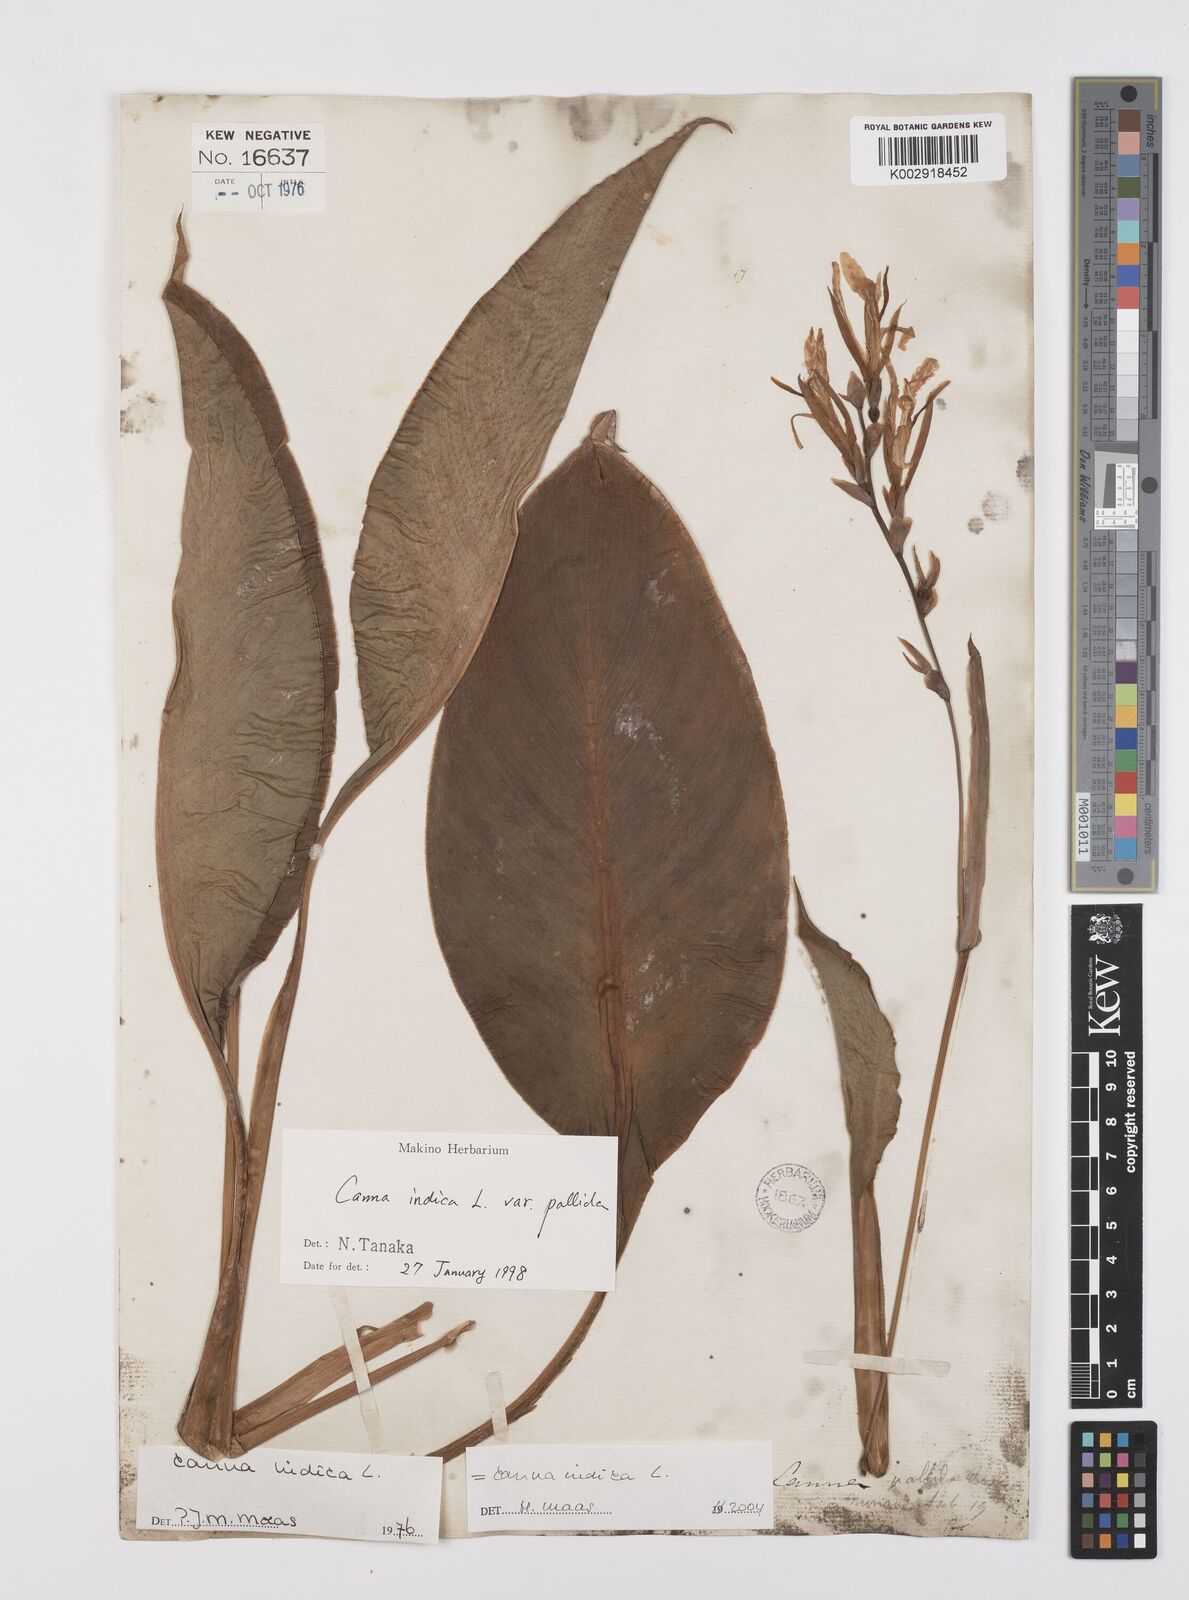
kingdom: Plantae
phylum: Tracheophyta
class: Liliopsida
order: Zingiberales
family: Cannaceae
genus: Canna
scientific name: Canna indica
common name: Indian shot
